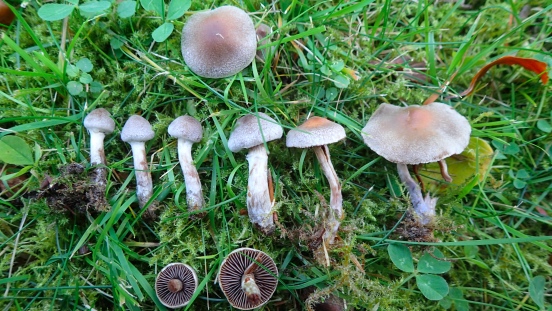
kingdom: Fungi
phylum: Basidiomycota
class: Agaricomycetes
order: Agaricales
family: Cortinariaceae
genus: Cortinarius
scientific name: Cortinarius
